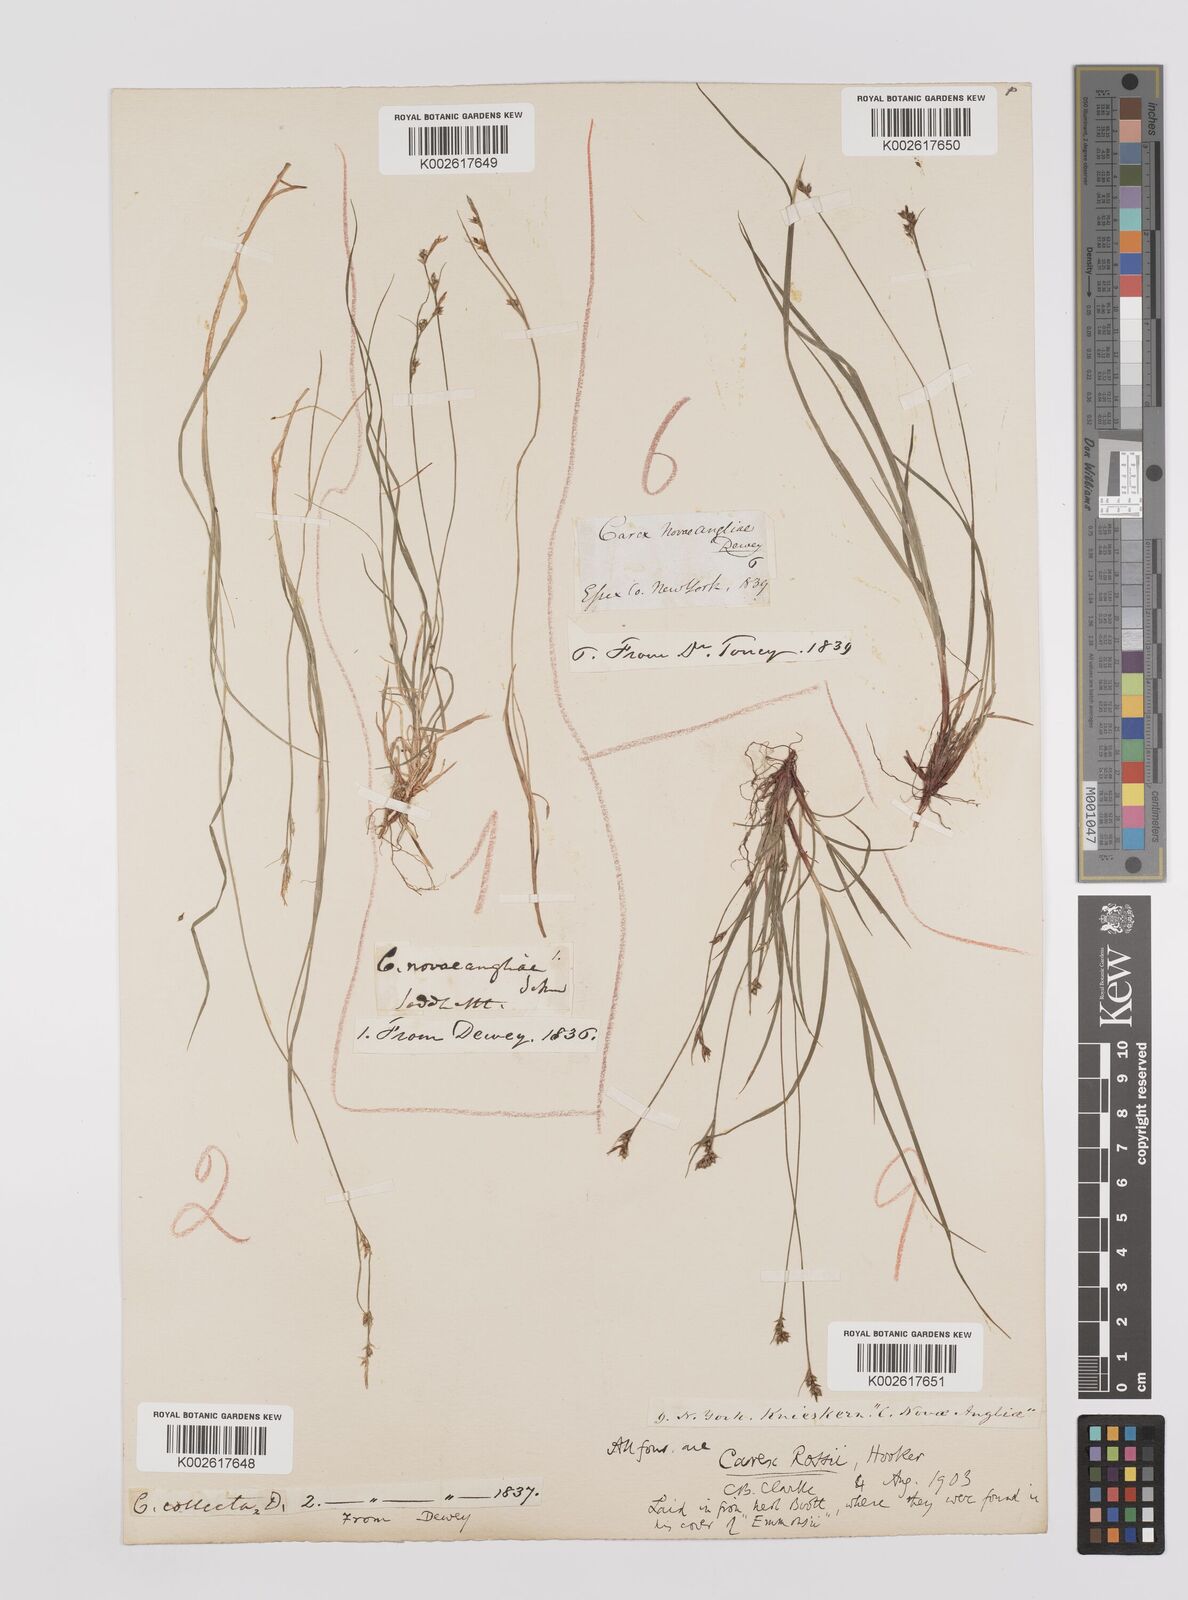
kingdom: Plantae
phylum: Tracheophyta
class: Liliopsida
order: Poales
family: Cyperaceae
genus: Carex
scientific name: Carex rossii
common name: Ross' sedge
